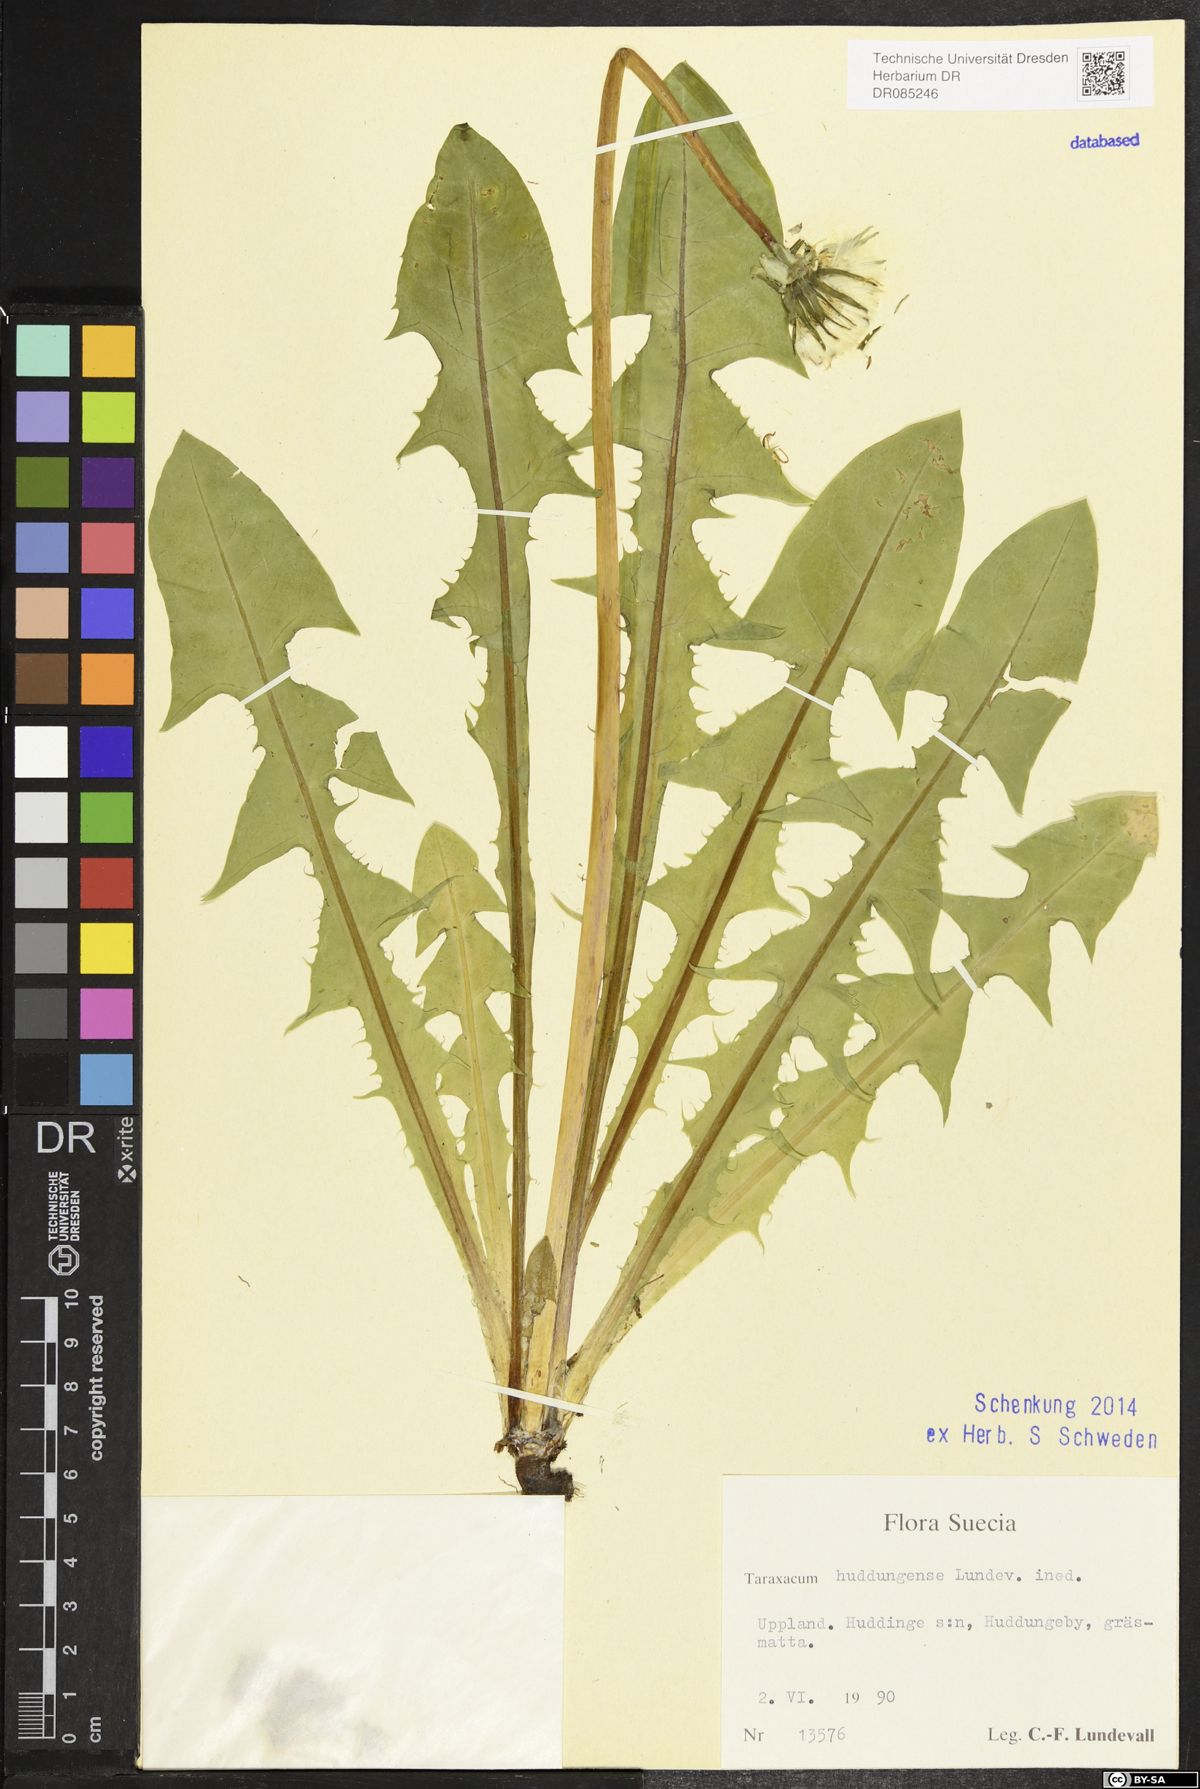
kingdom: Plantae
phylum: Tracheophyta
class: Magnoliopsida
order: Asterales
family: Asteraceae
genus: Taraxacum
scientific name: Taraxacum huddungense
